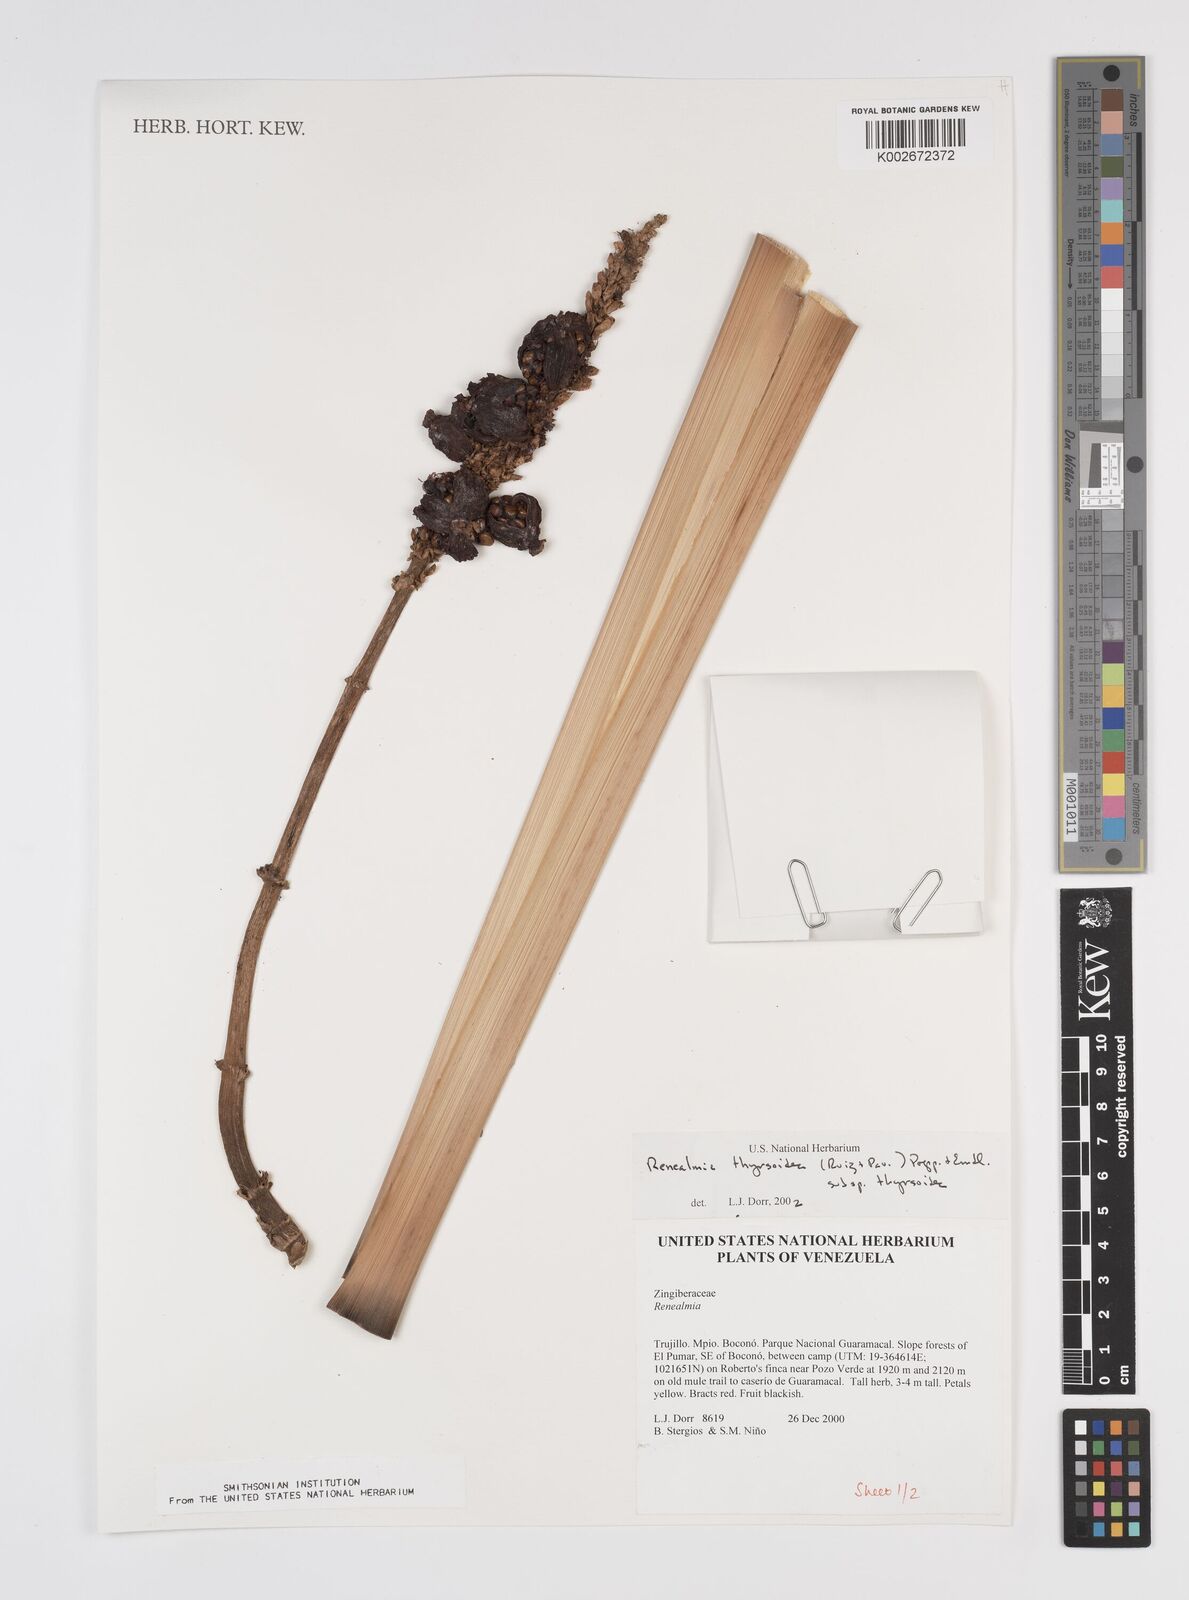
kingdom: Plantae
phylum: Tracheophyta
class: Liliopsida
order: Zingiberales
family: Zingiberaceae
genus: Renealmia
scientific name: Renealmia thyrsoidea
